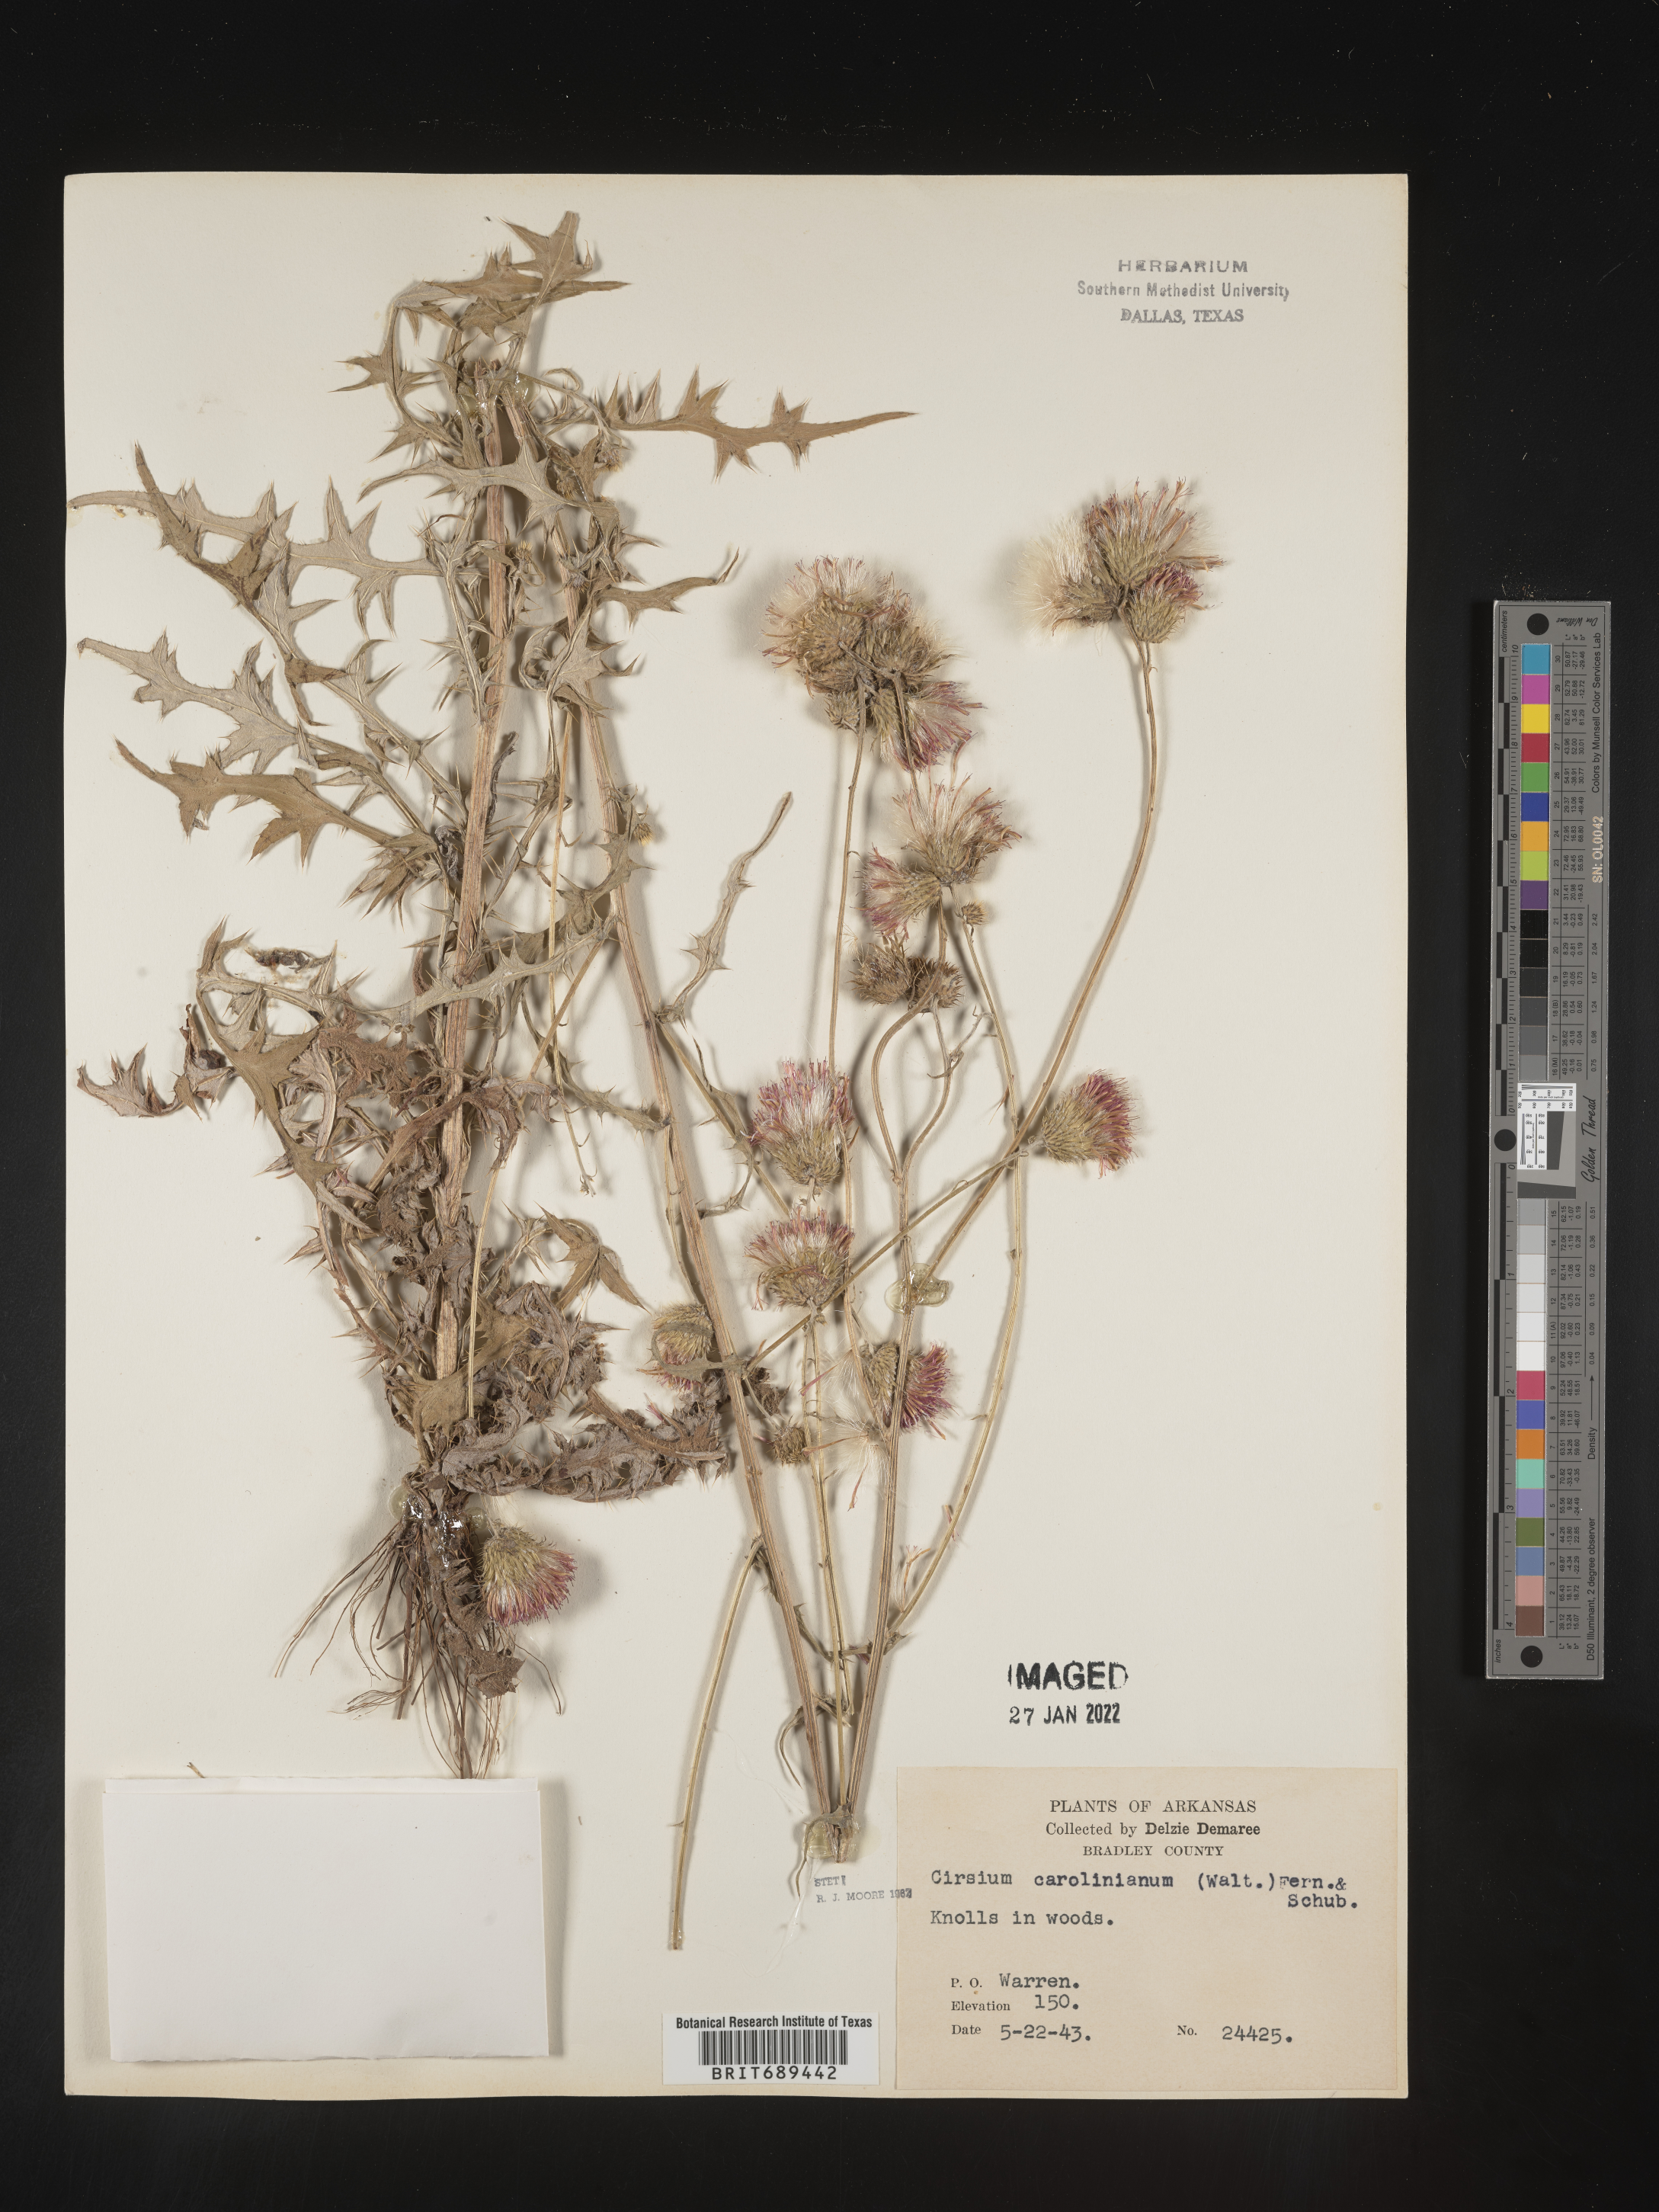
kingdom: Plantae
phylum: Tracheophyta
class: Magnoliopsida
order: Asterales
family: Asteraceae
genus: Cirsium
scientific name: Cirsium carolinianum
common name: Carolina thistle
